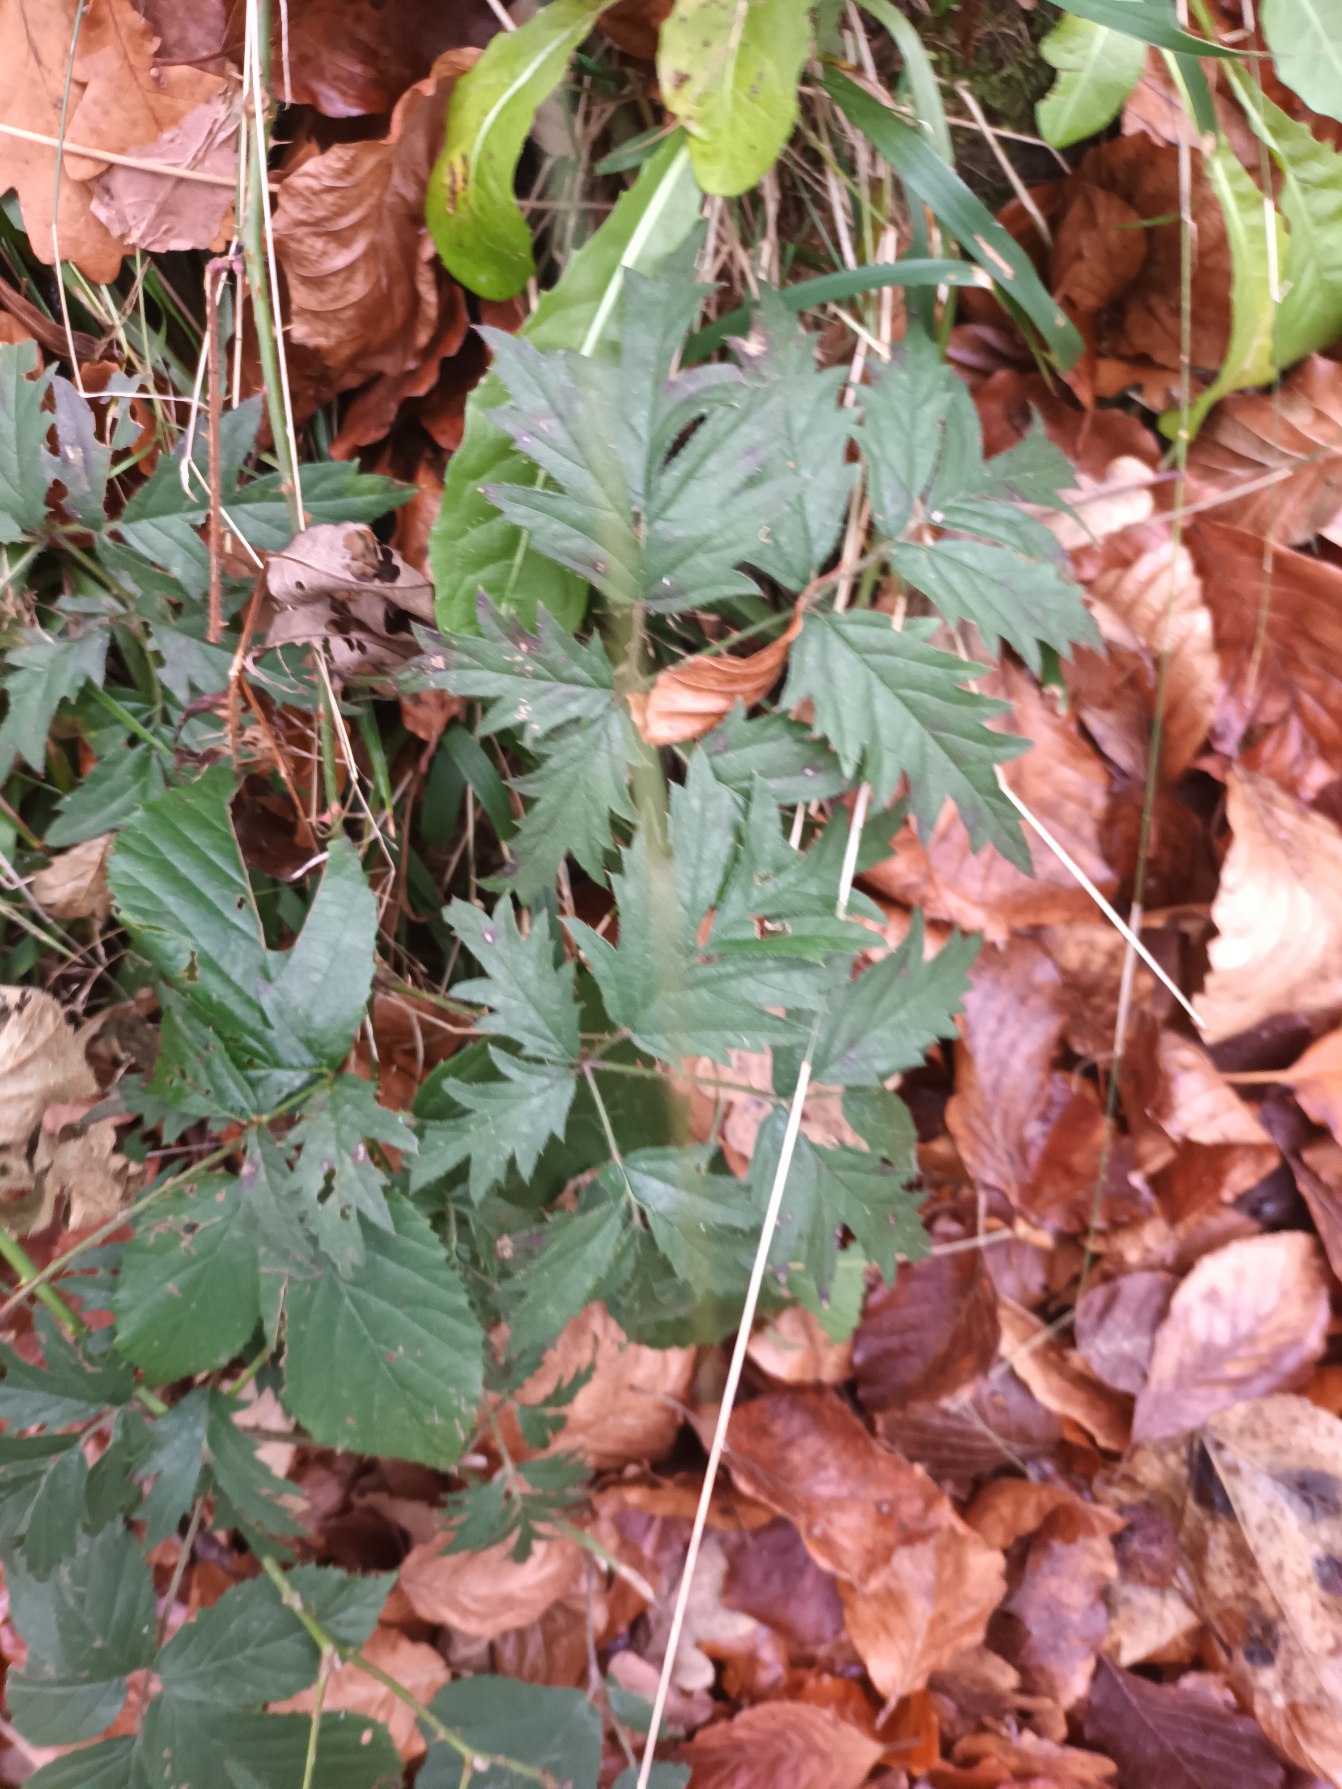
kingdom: Plantae
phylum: Tracheophyta
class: Magnoliopsida
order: Rosales
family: Rosaceae
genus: Rubus
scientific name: Rubus laciniatus
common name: Fliget brombær
